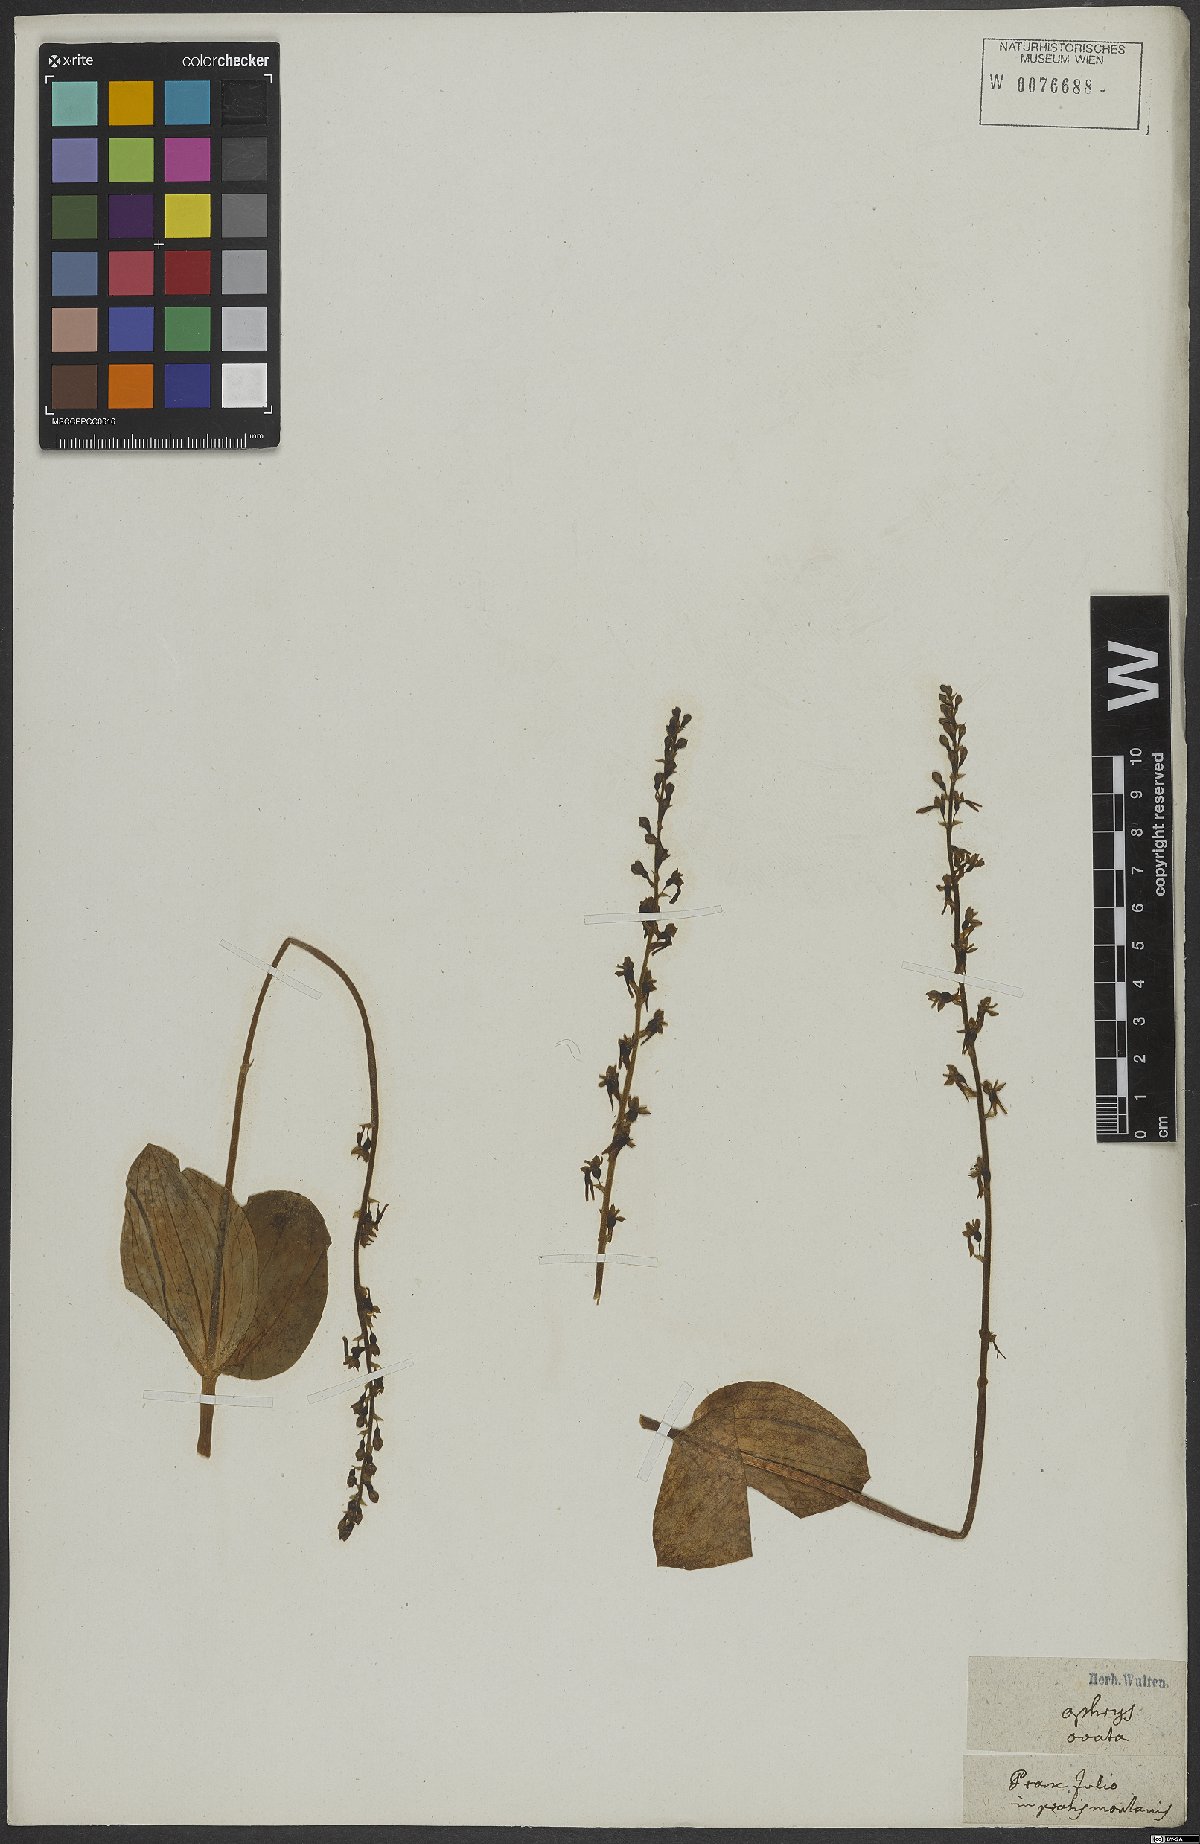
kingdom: Plantae
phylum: Tracheophyta
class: Liliopsida
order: Asparagales
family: Orchidaceae
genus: Neottia
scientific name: Neottia ovata
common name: Common twayblade
